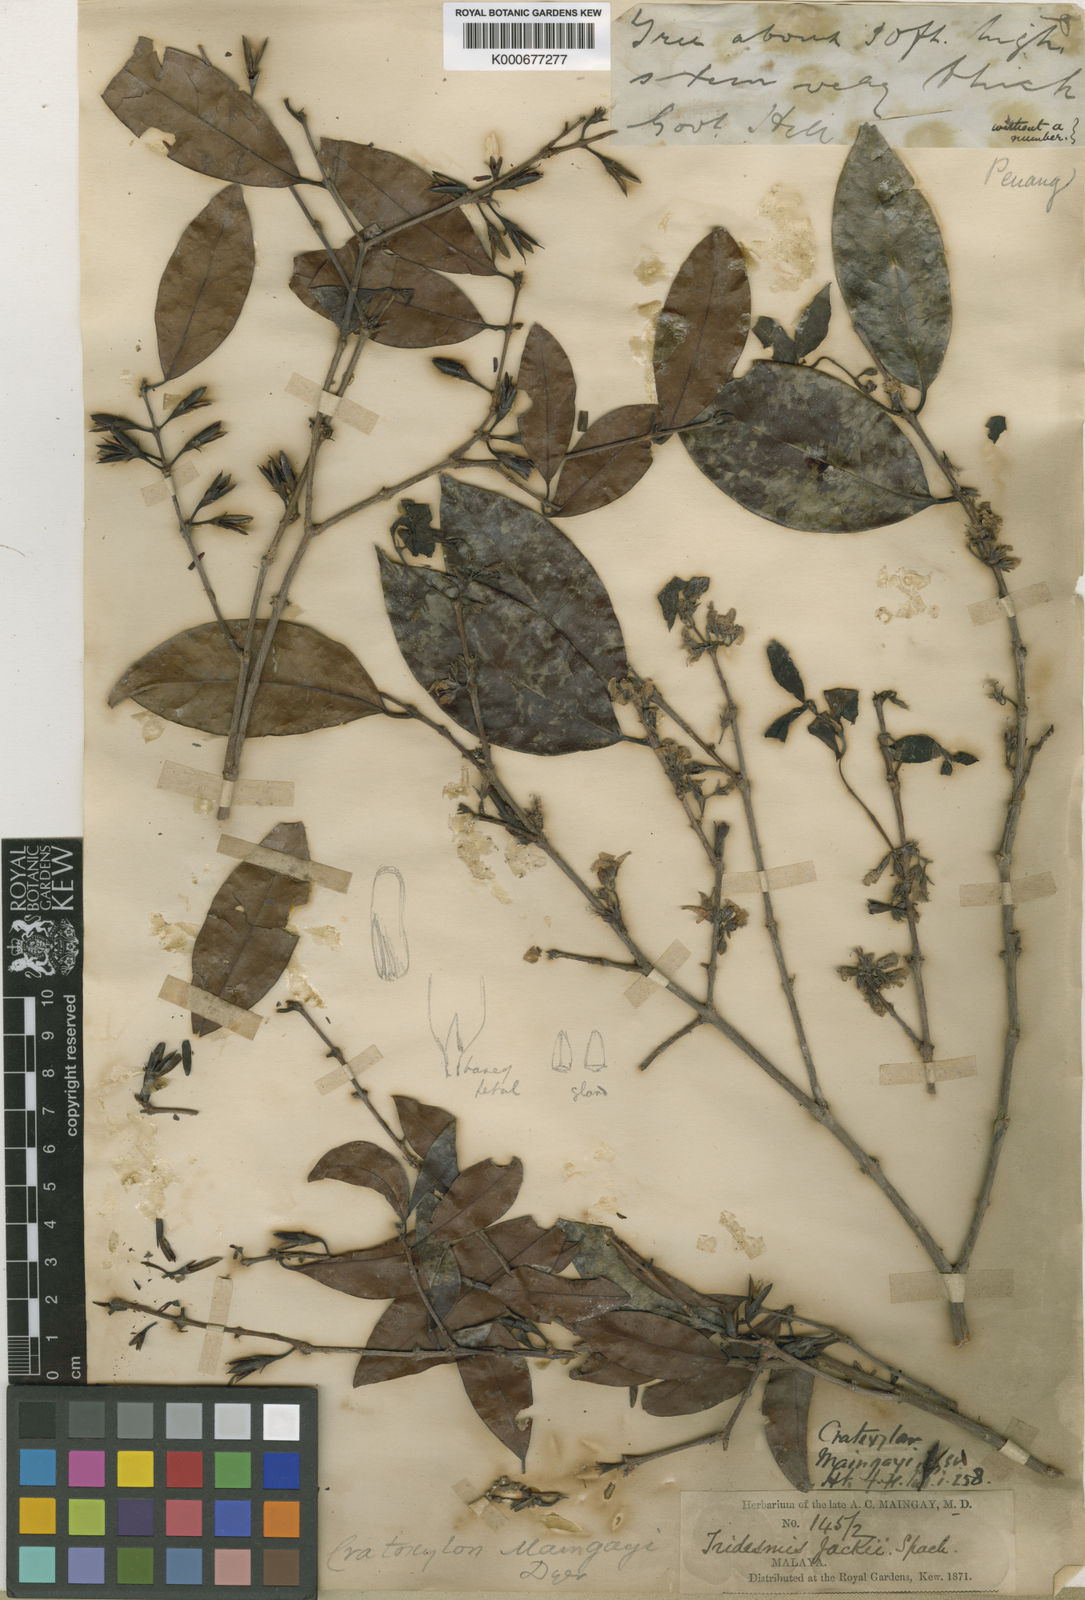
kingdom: Plantae
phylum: Tracheophyta
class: Magnoliopsida
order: Malpighiales
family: Hypericaceae
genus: Cratoxylum
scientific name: Cratoxylum maingayi
